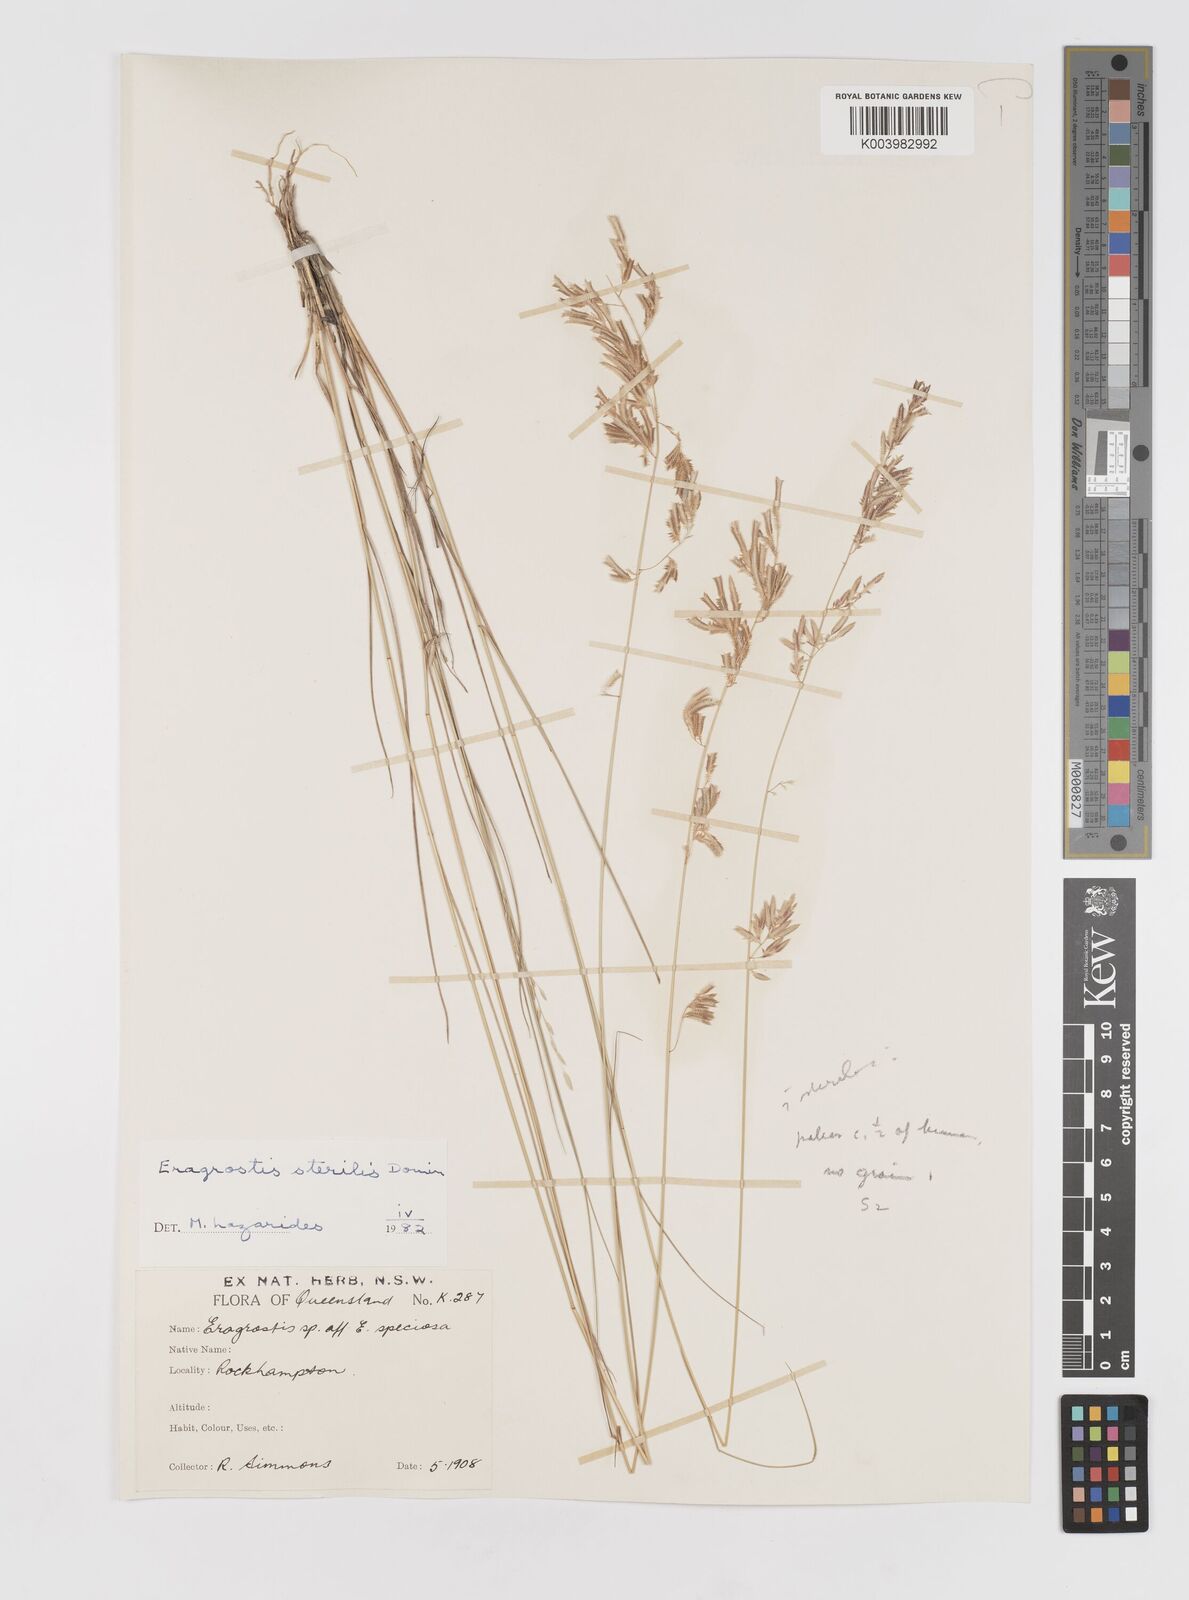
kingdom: Plantae
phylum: Tracheophyta
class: Liliopsida
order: Poales
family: Poaceae
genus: Eragrostis
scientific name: Eragrostis sterilis
